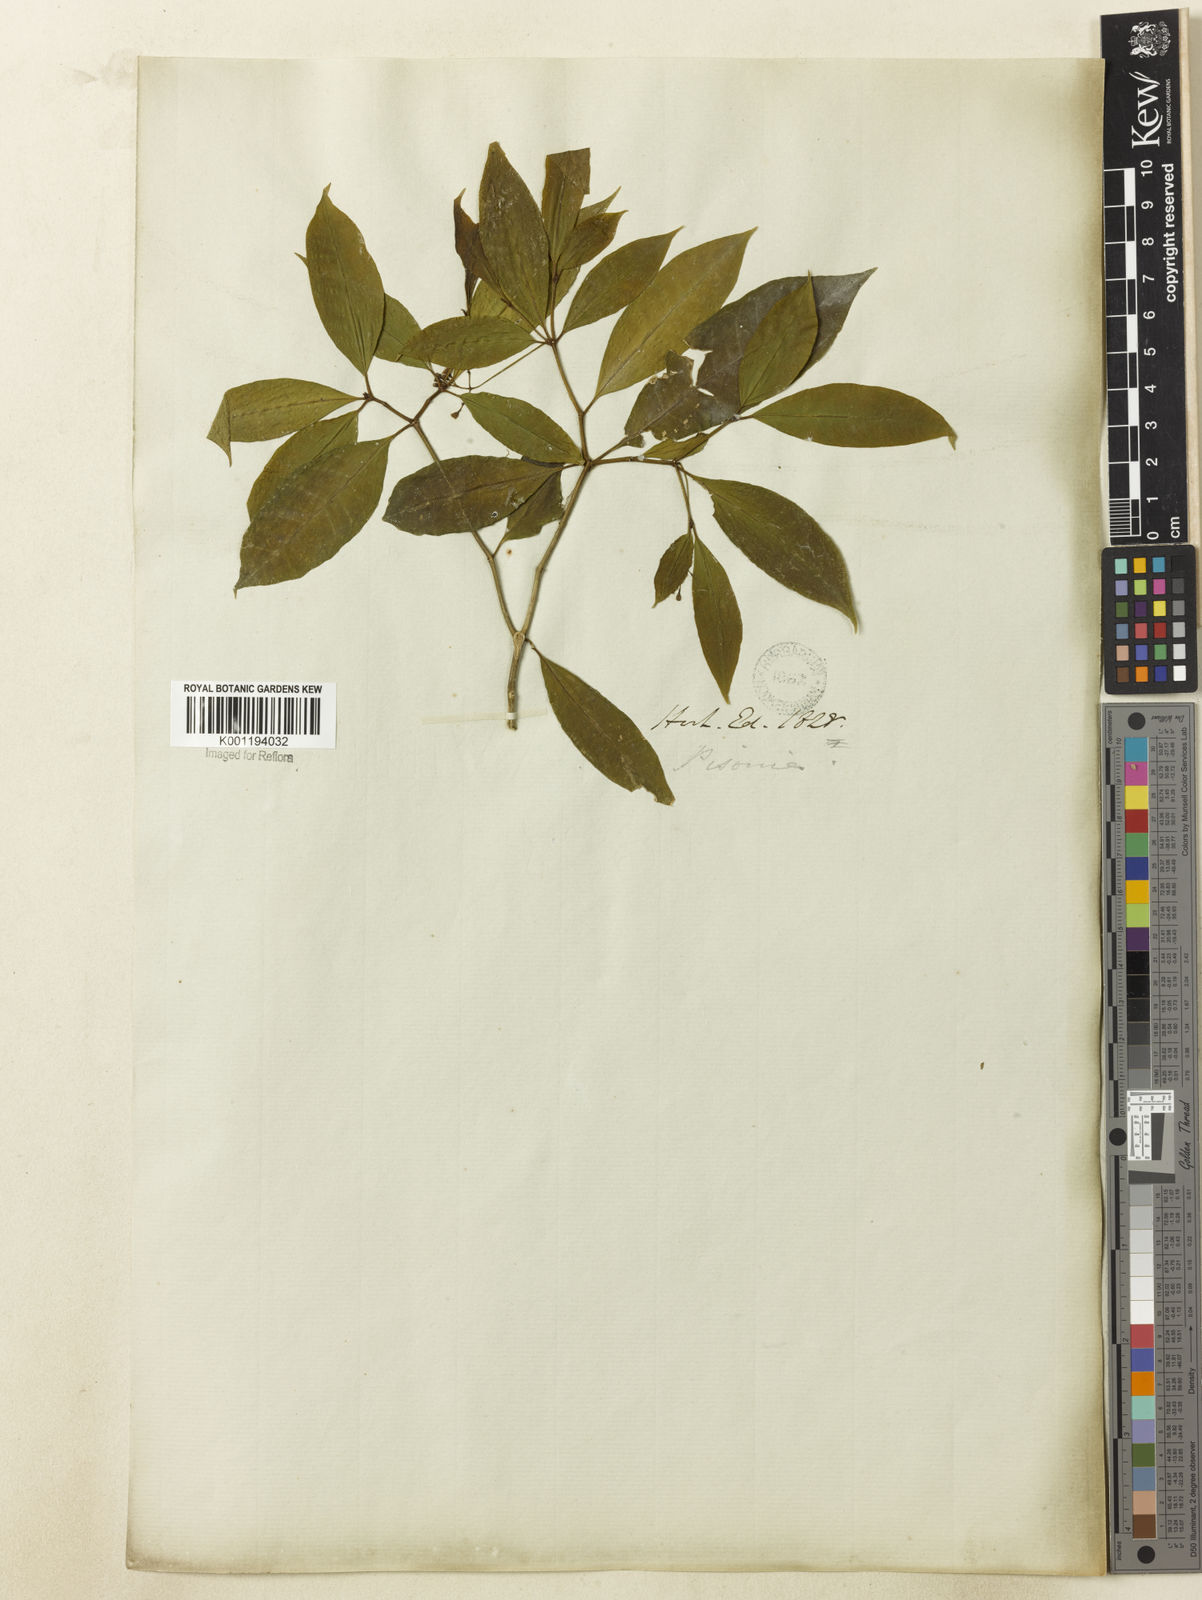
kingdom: Plantae
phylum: Tracheophyta
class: Magnoliopsida
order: Caryophyllales
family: Nyctaginaceae
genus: Guapira
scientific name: Guapira
